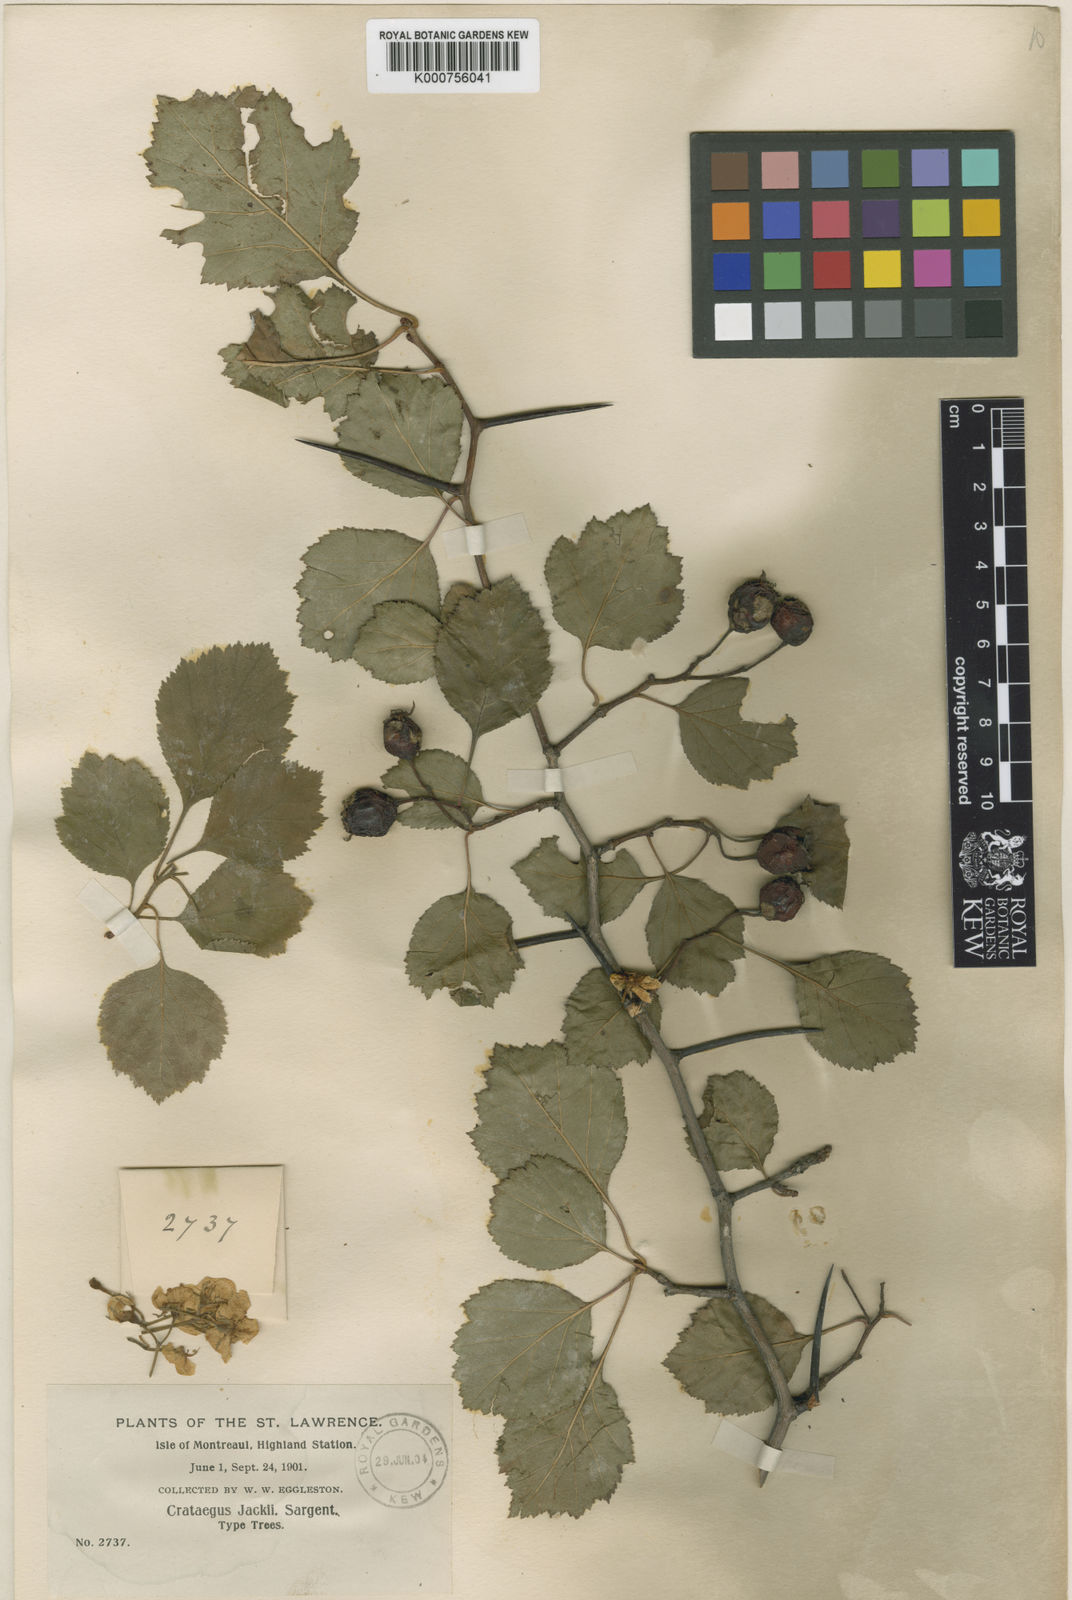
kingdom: Plantae
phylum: Tracheophyta
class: Magnoliopsida
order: Rosales
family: Rosaceae
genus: Crataegus
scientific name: Crataegus lumaria
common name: Jack's hawthorn
